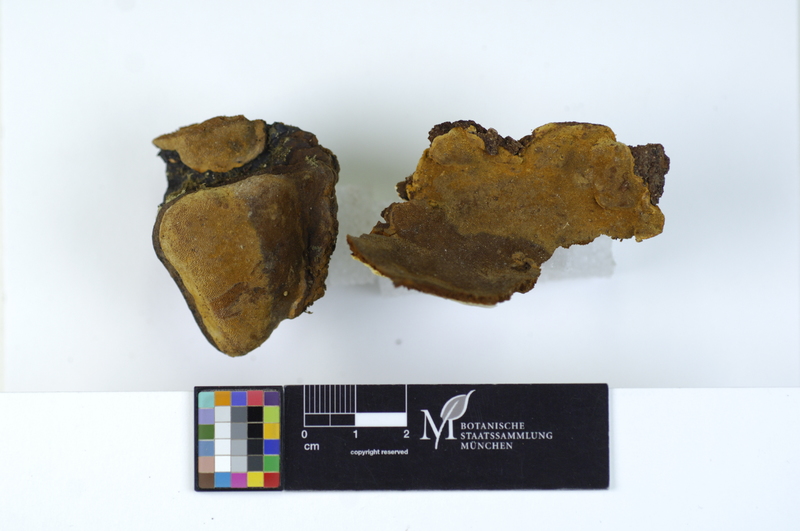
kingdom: Plantae
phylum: Tracheophyta
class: Magnoliopsida
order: Fagales
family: Betulaceae
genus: Betula
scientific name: Betula
